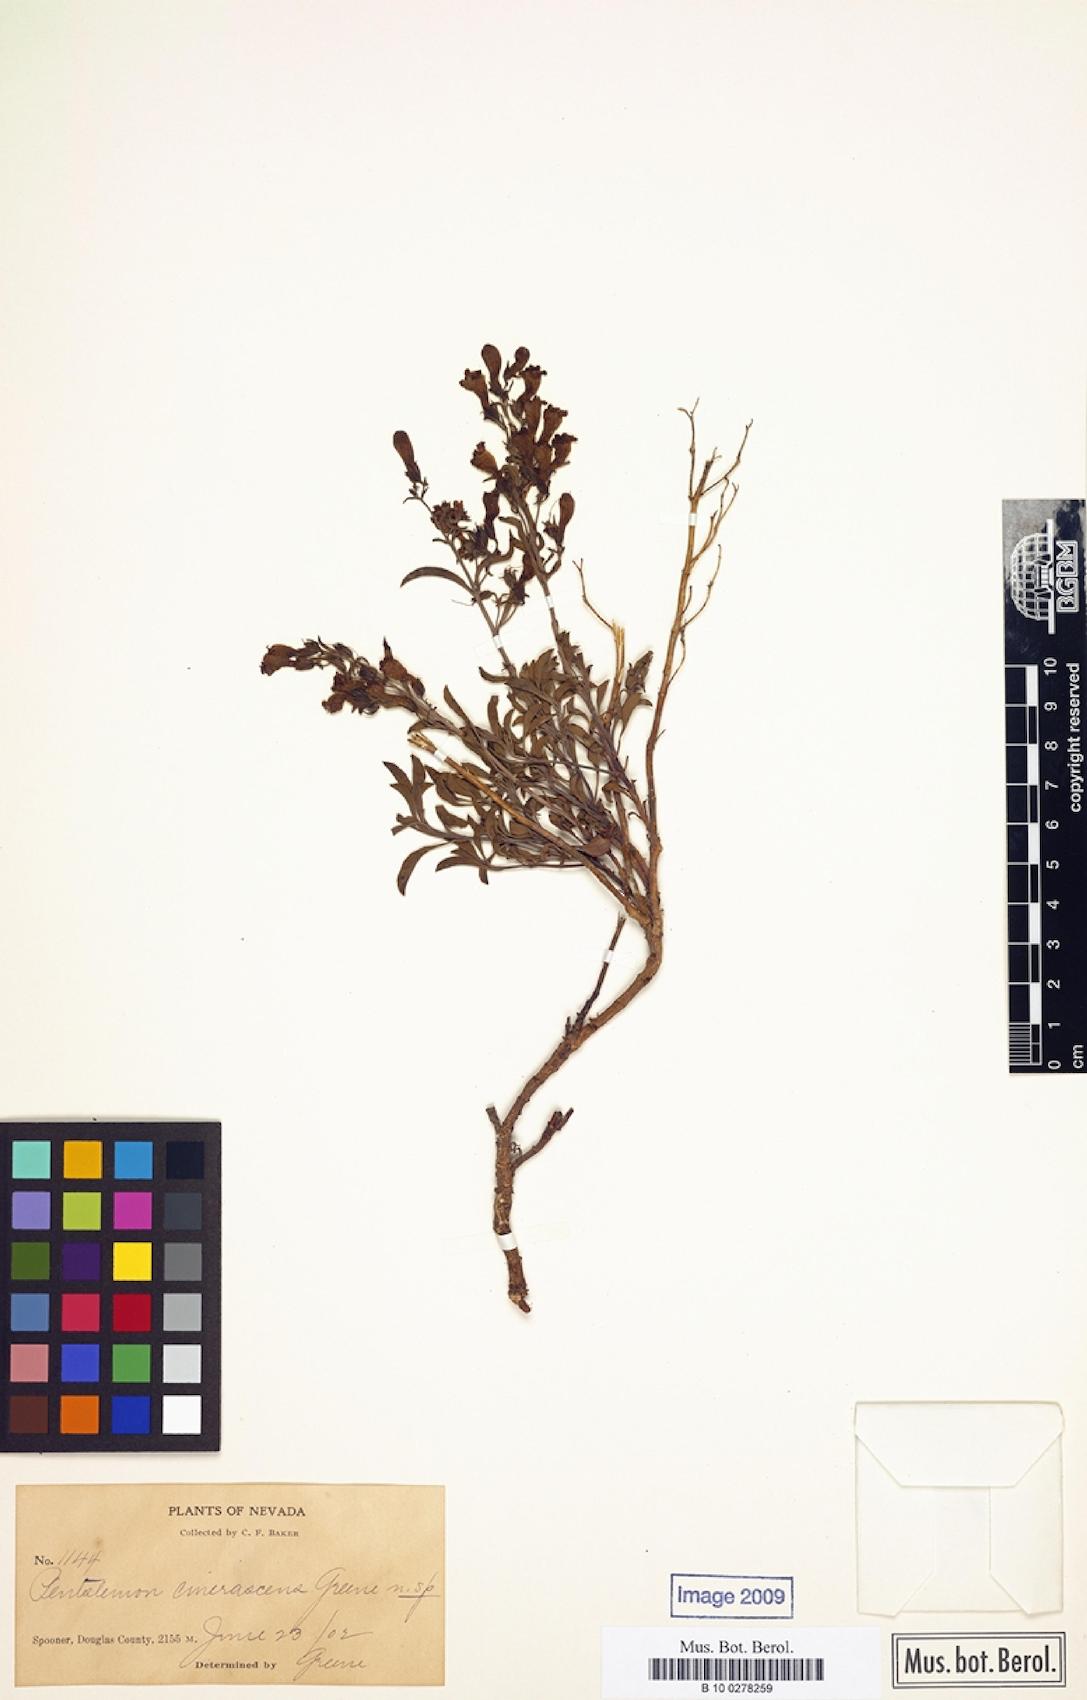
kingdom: Plantae
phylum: Tracheophyta
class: Magnoliopsida
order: Lamiales
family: Plantaginaceae
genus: Penstemon
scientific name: Penstemon roezlii
